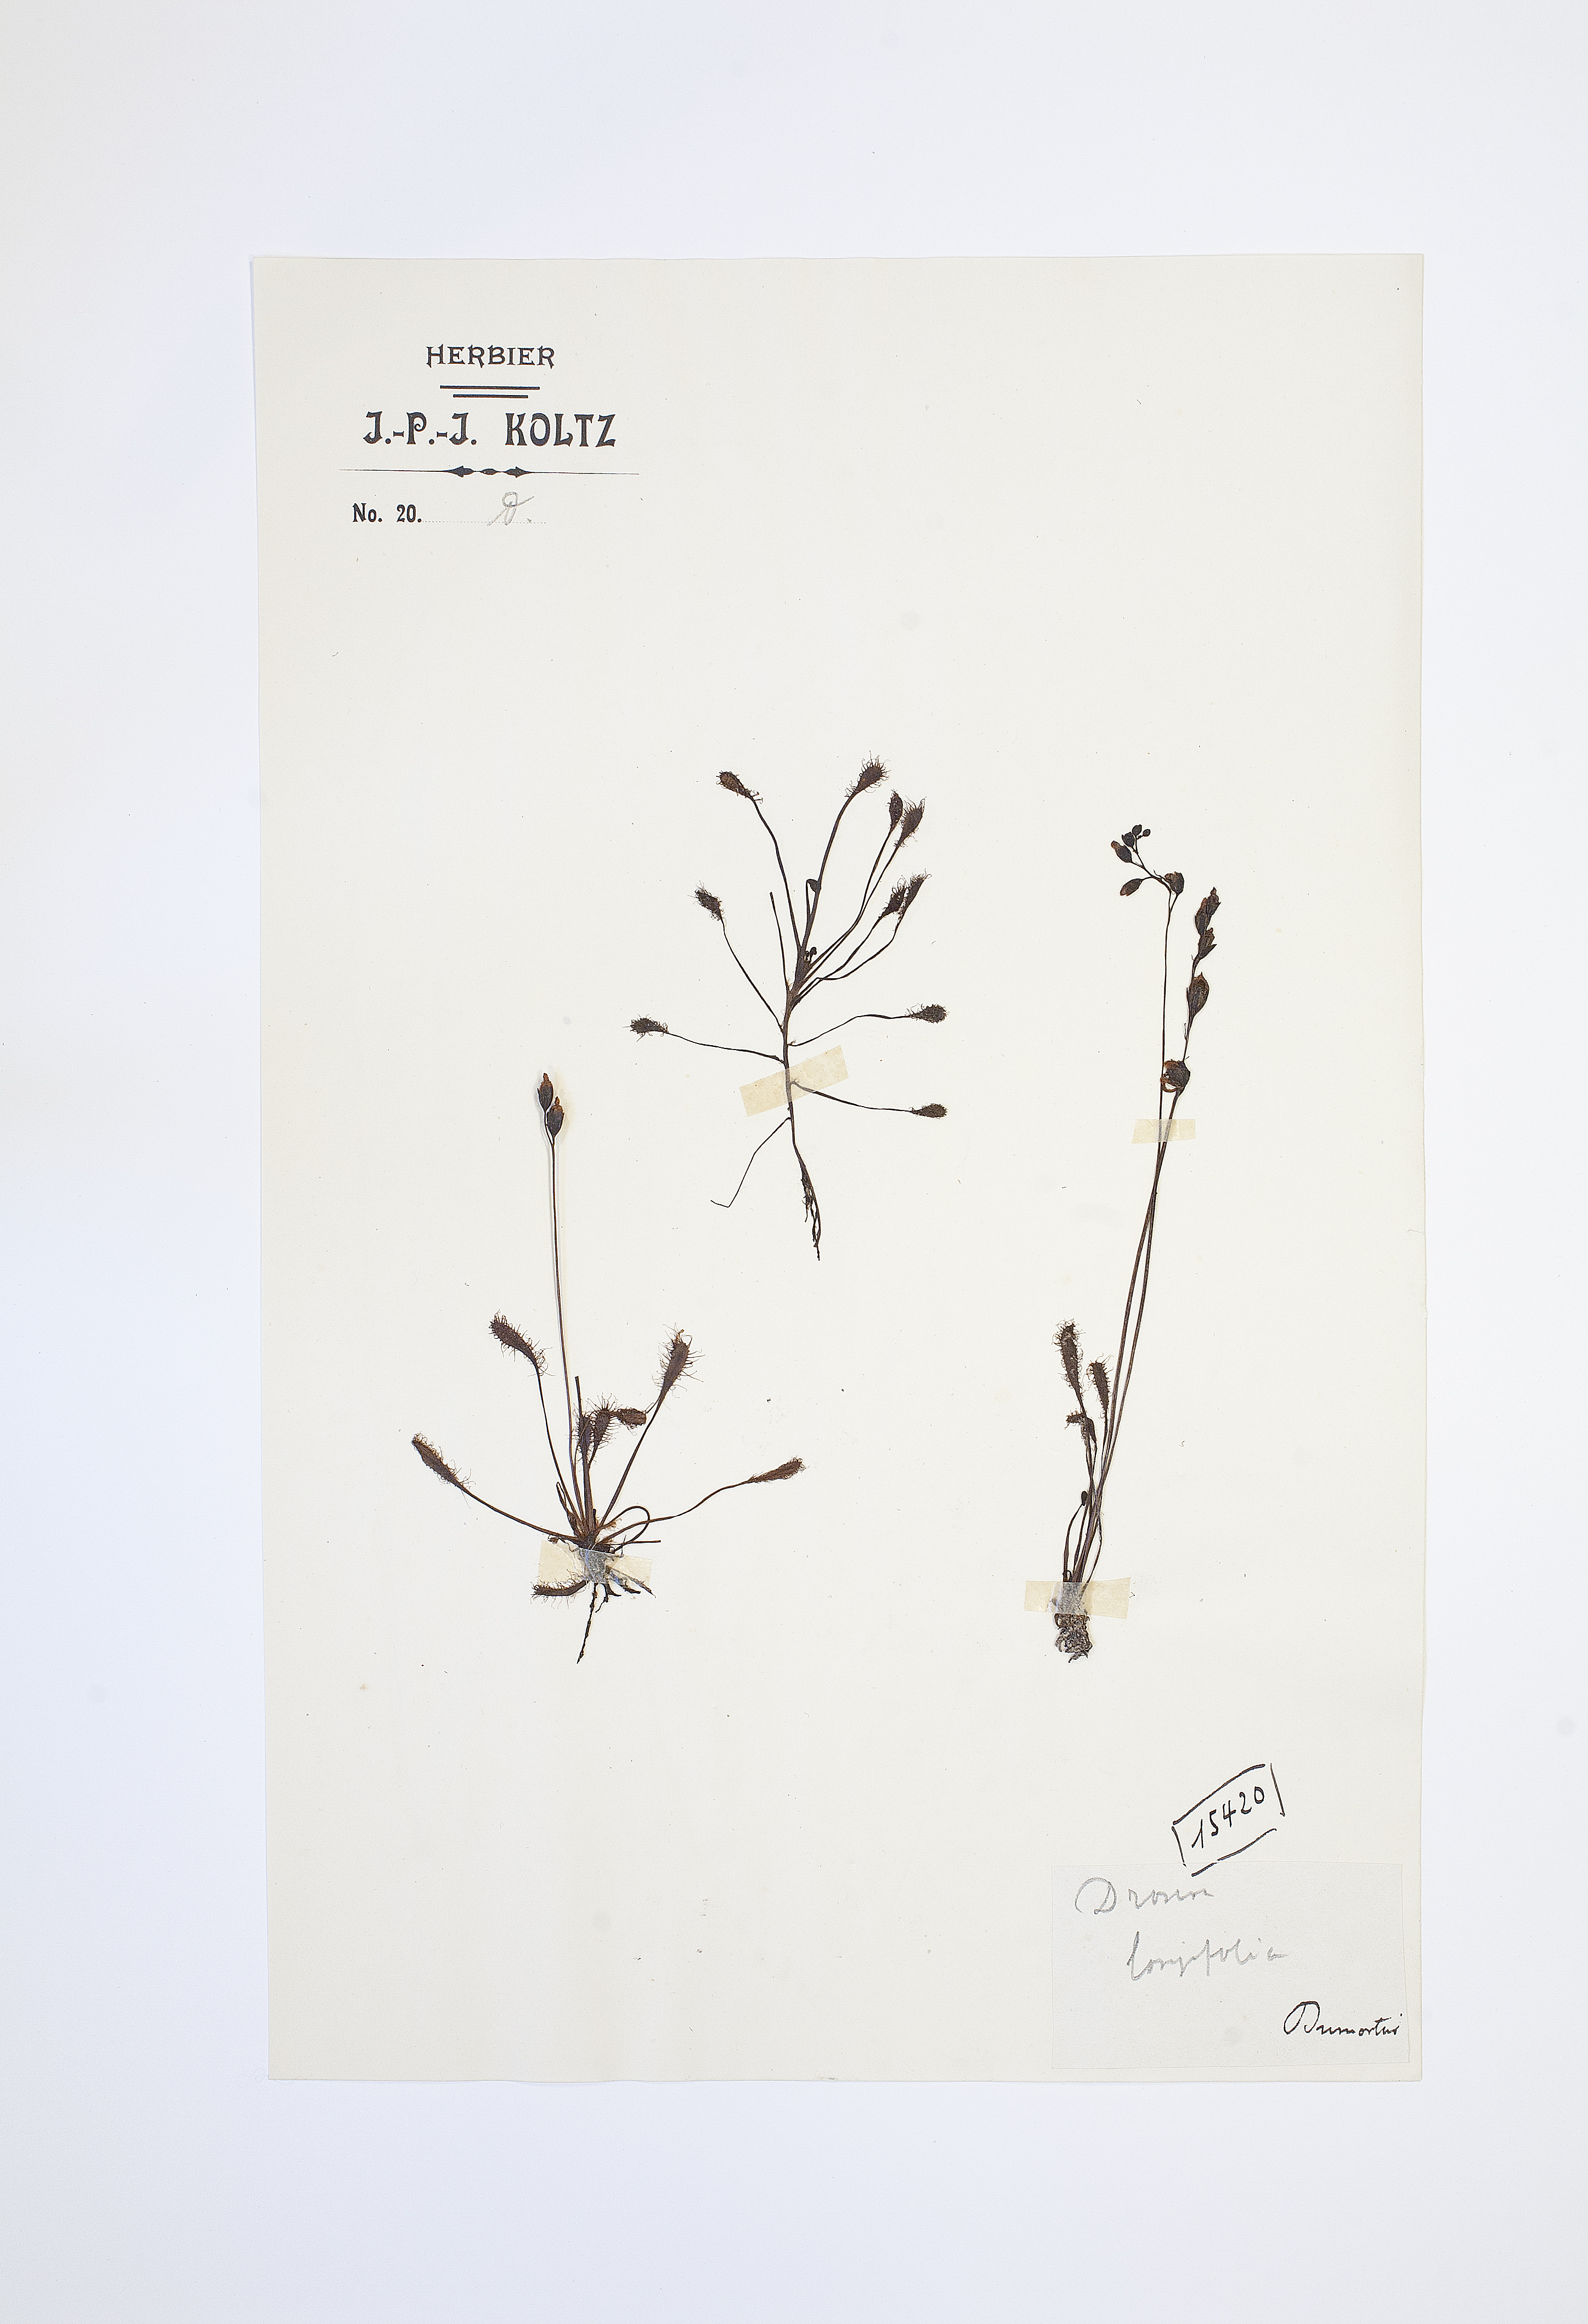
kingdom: Plantae
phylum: Tracheophyta
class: Magnoliopsida
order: Caryophyllales
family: Droseraceae
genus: Drosera
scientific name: Drosera anglica
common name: Great sundew
